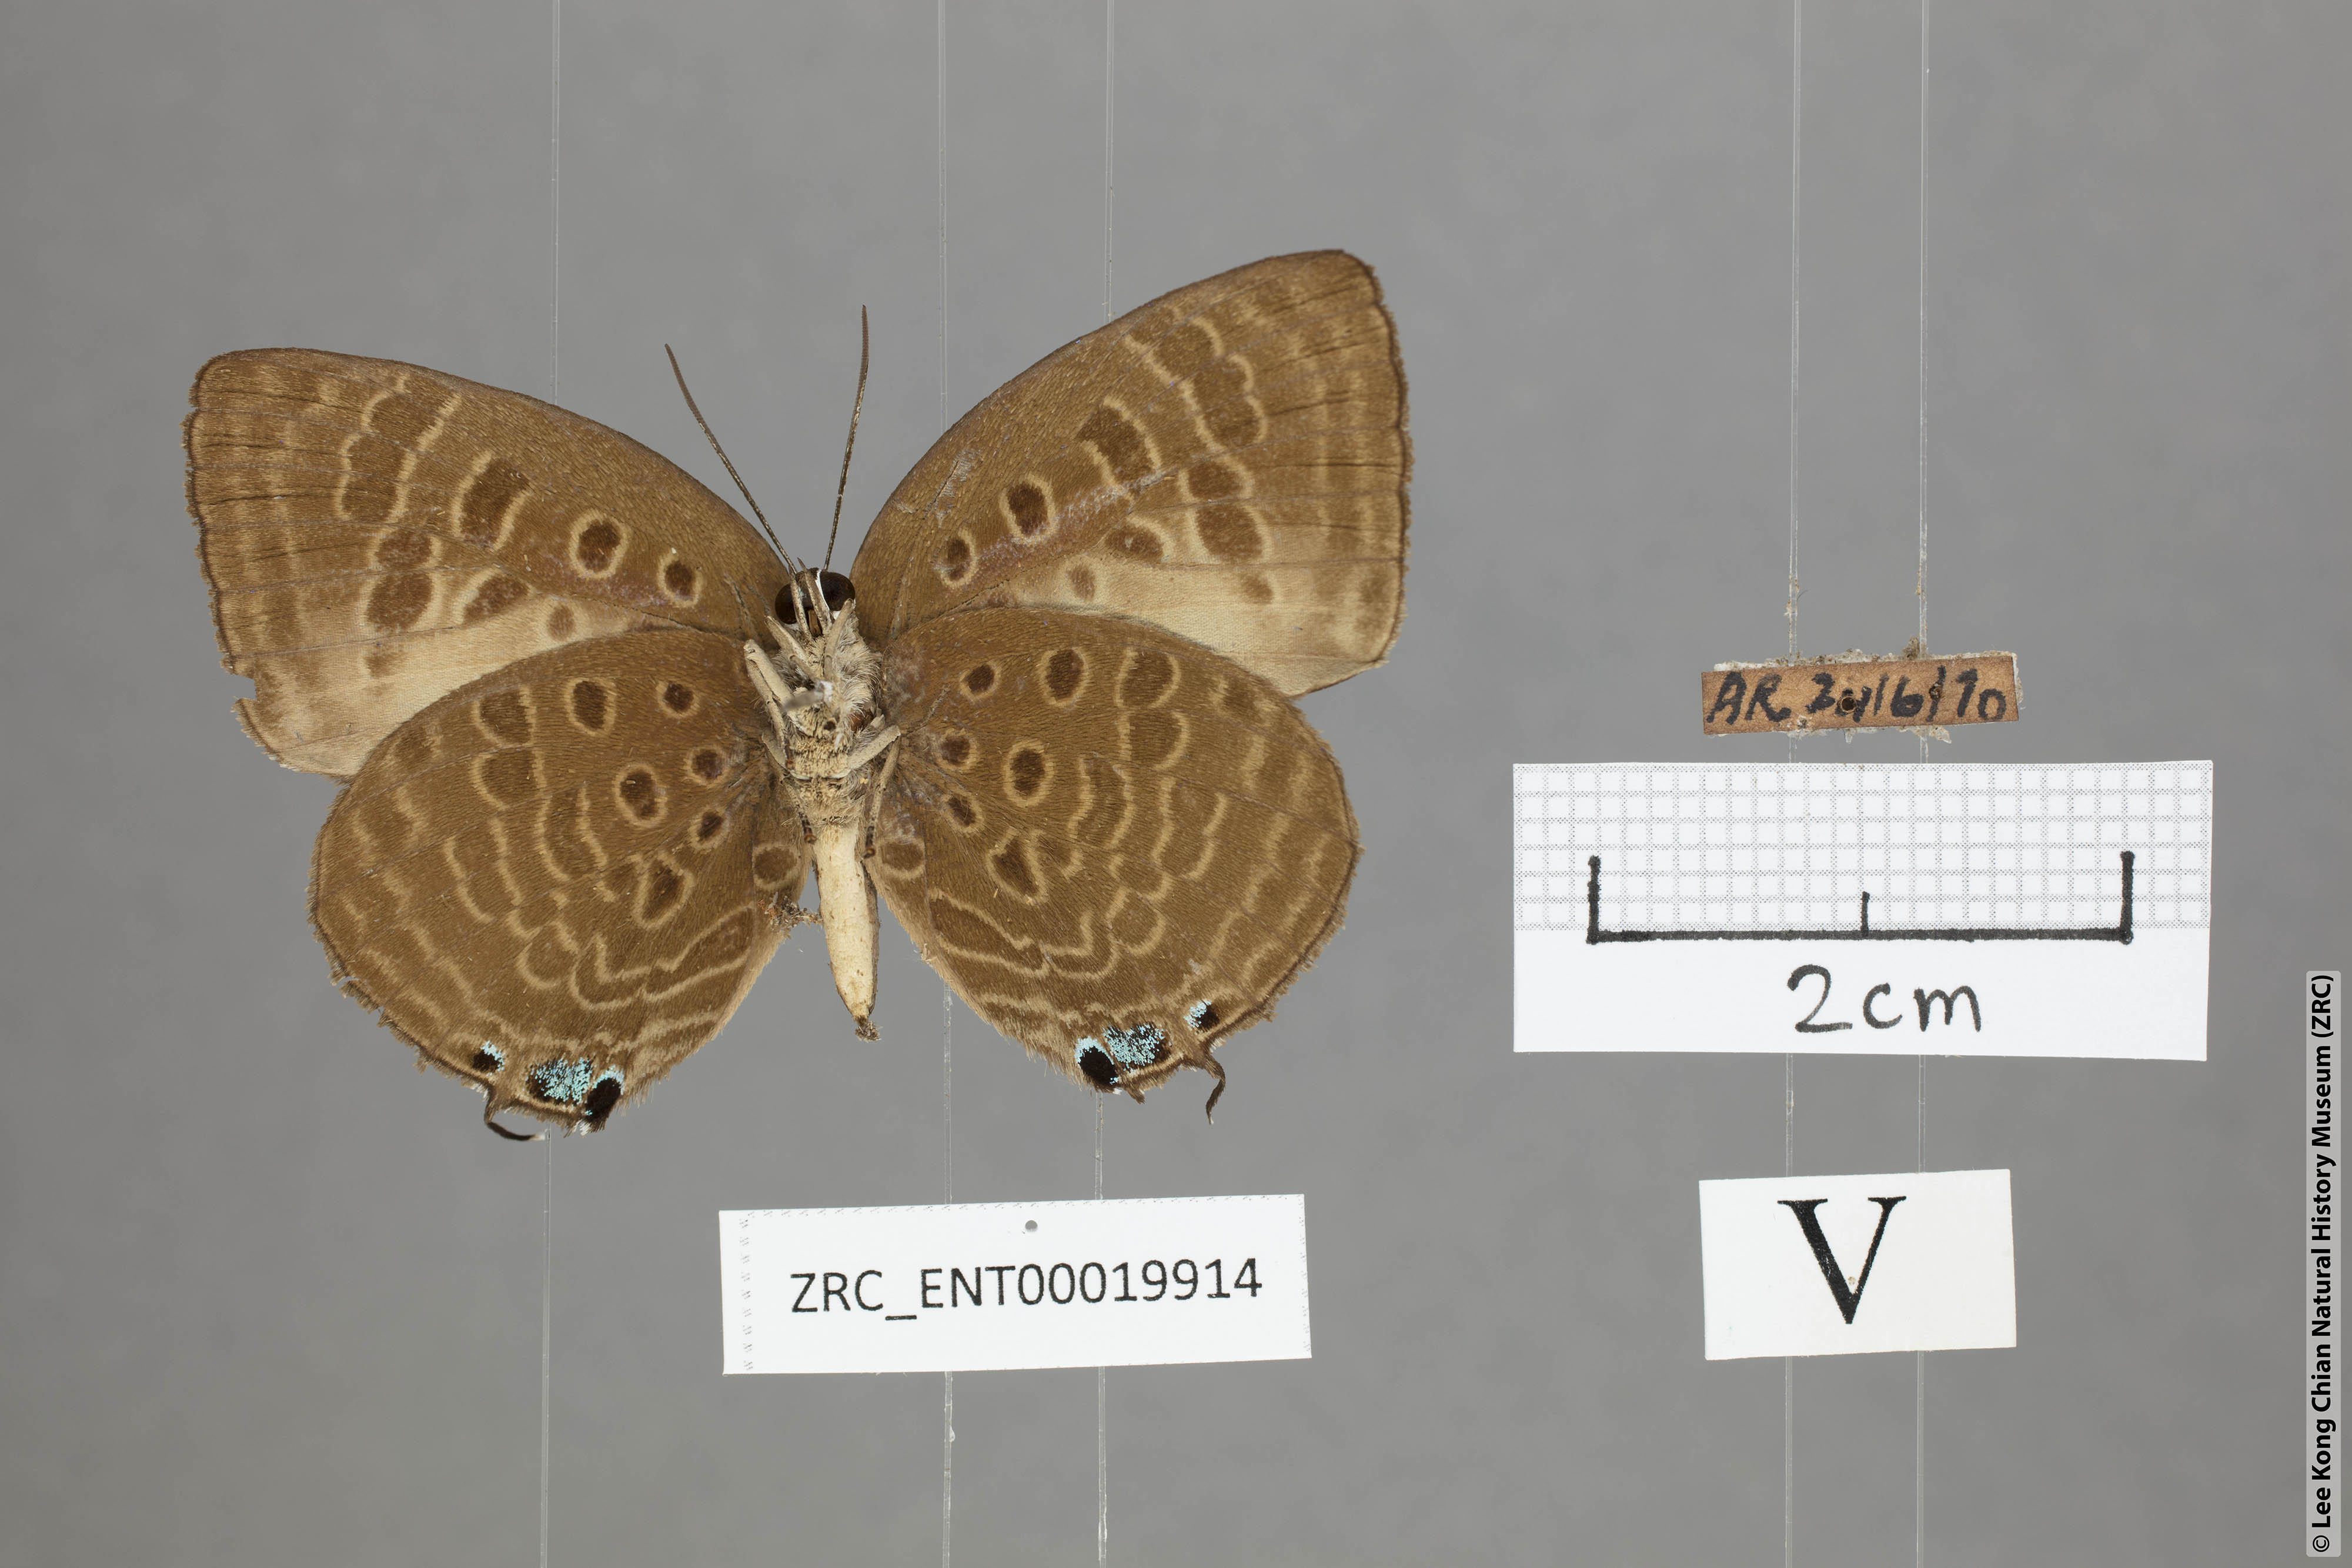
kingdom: Animalia
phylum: Arthropoda
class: Insecta
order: Lepidoptera
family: Lycaenidae
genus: Arhopala
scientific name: Arhopala vihara
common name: Large spotted oakblue
